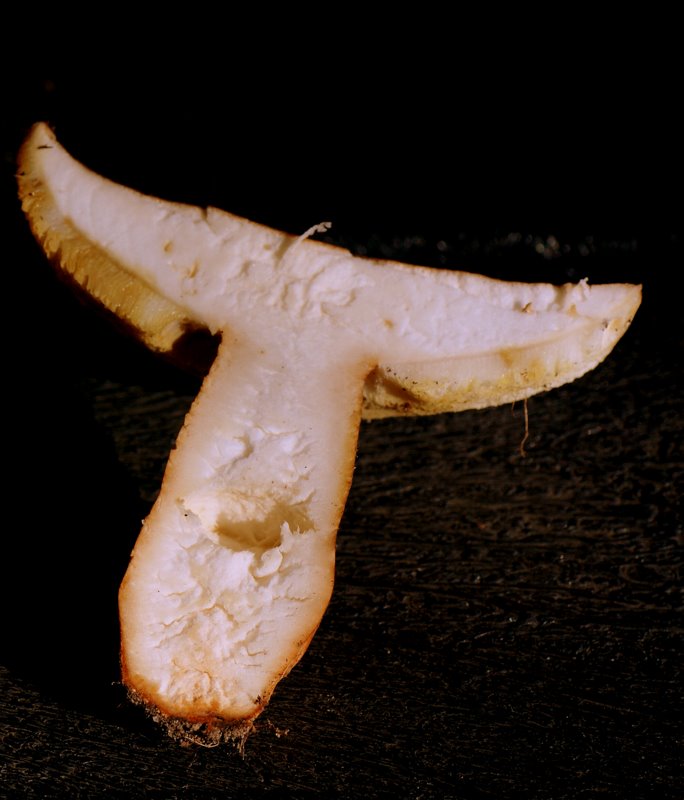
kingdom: Fungi
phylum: Basidiomycota
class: Agaricomycetes
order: Boletales
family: Gyroporaceae
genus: Gyroporus
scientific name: Gyroporus castaneus
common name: kastanie-kammerrørhat
